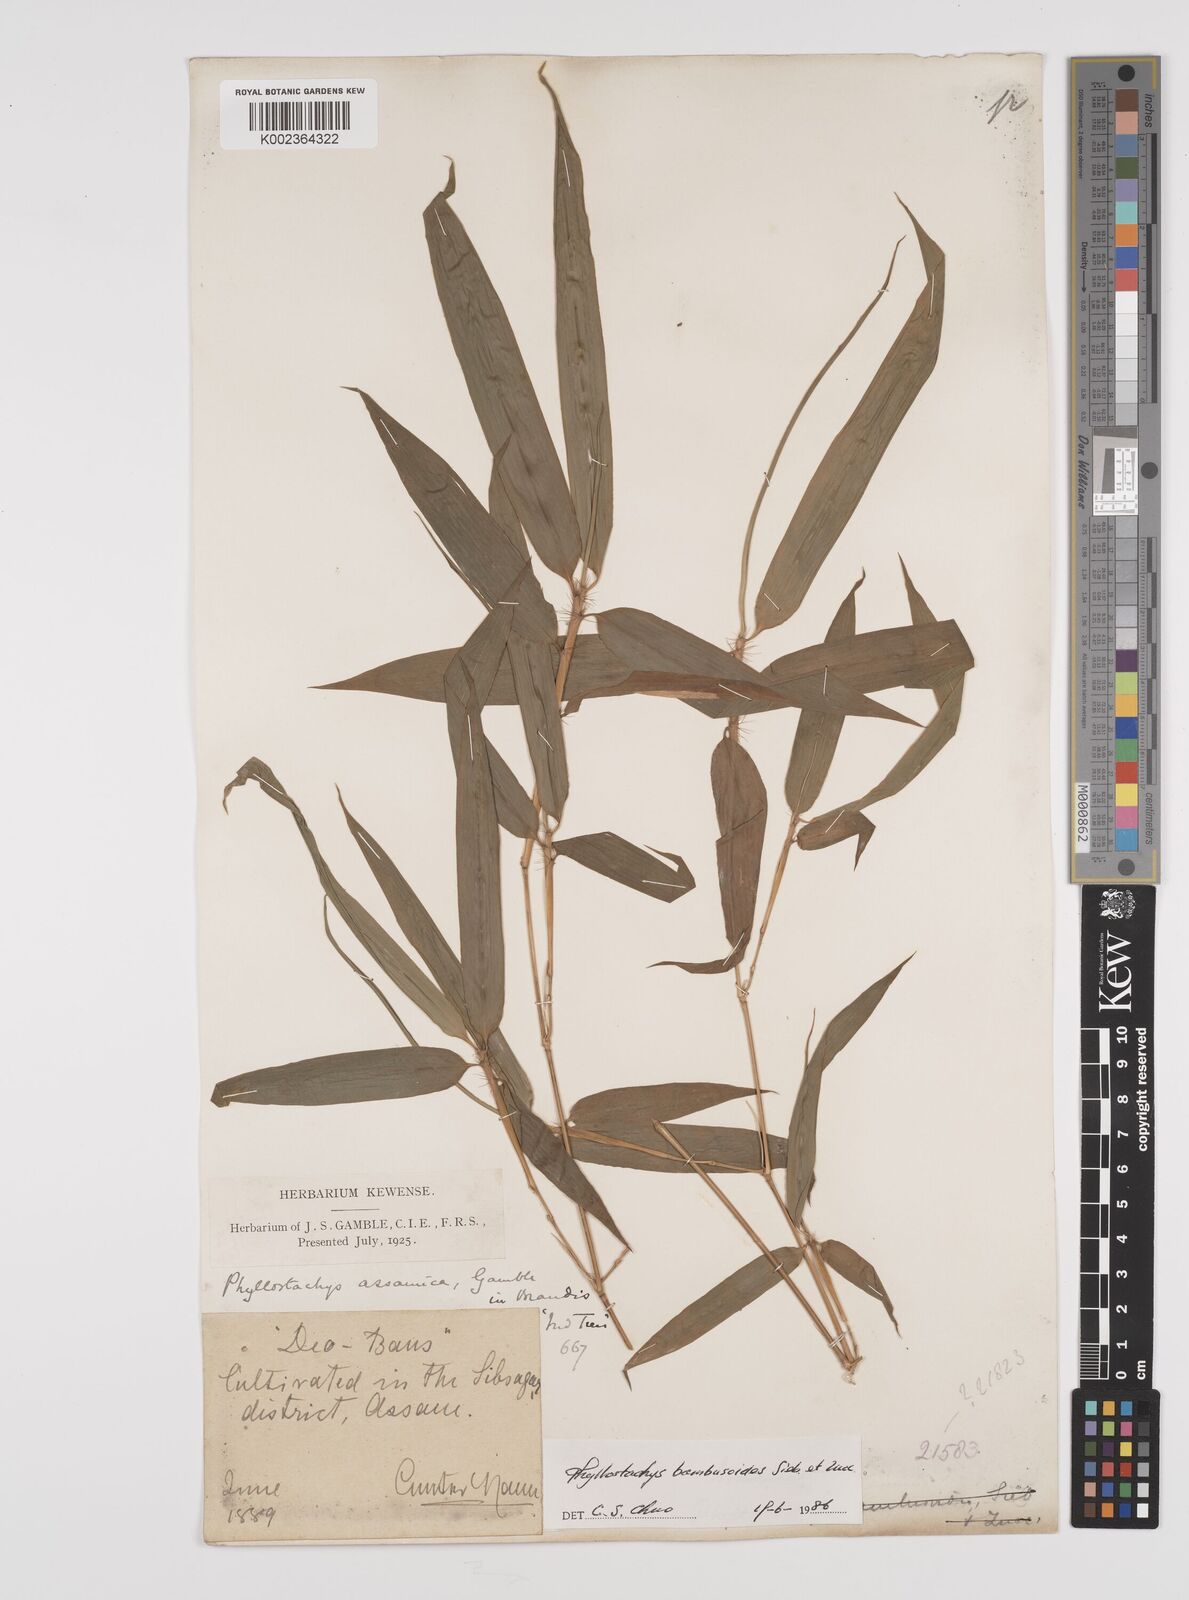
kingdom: Plantae
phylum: Tracheophyta
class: Liliopsida
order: Poales
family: Poaceae
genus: Phyllostachys
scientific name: Phyllostachys reticulata
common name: Bamboo
